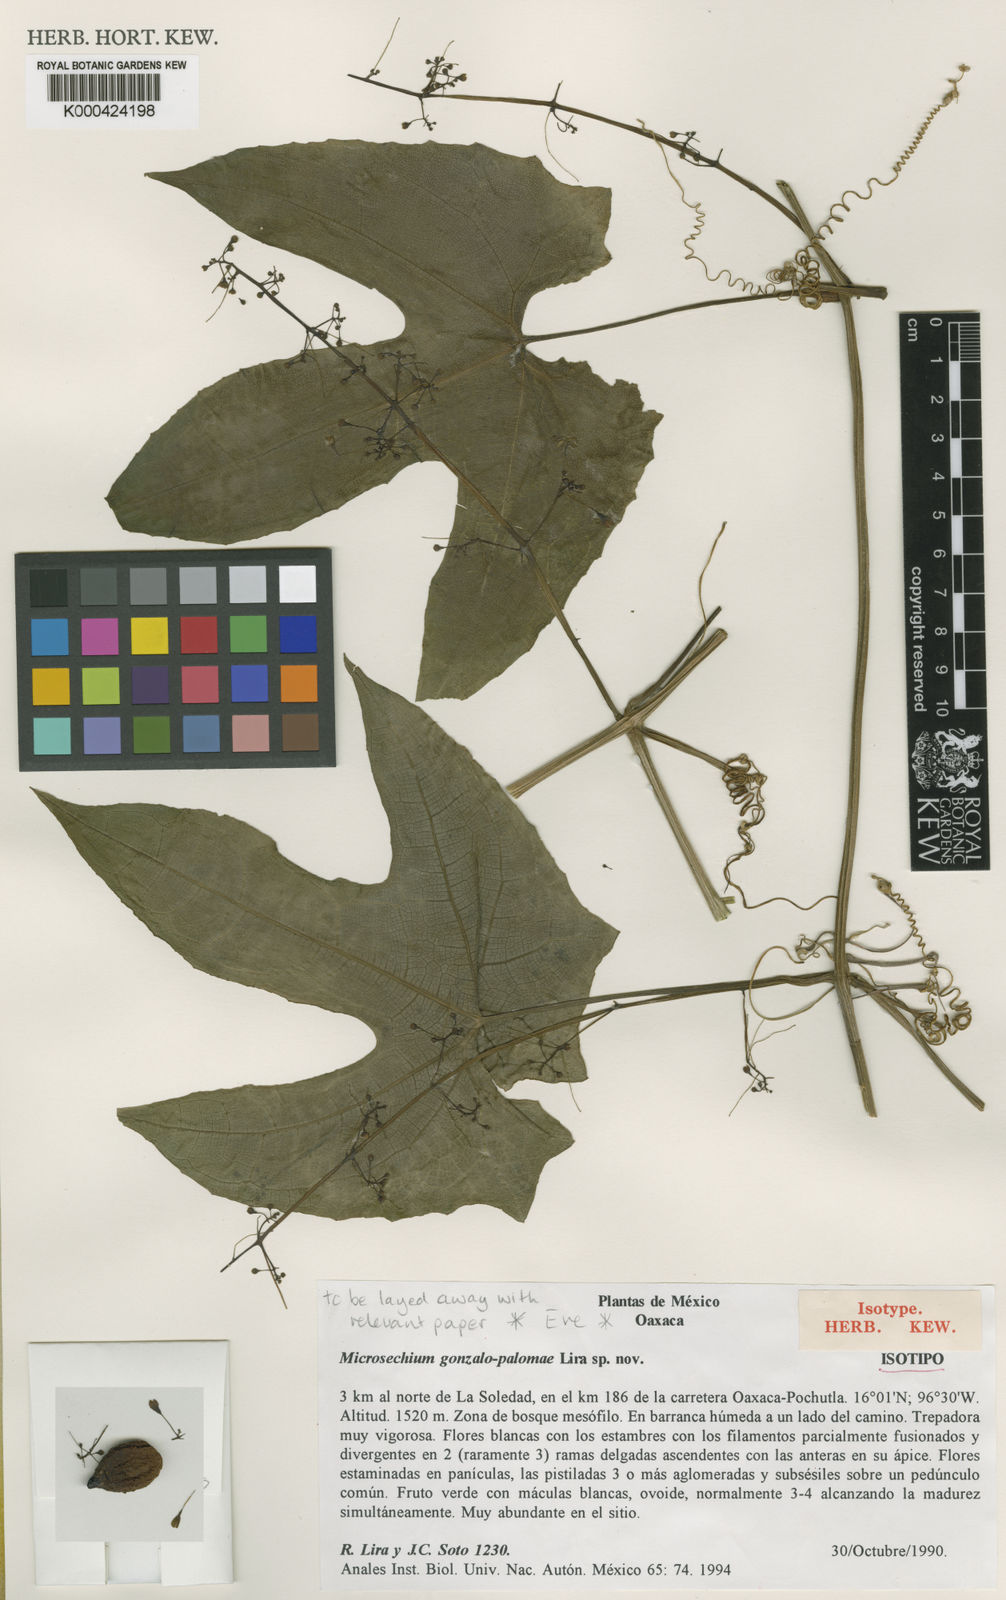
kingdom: Plantae
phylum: Tracheophyta
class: Magnoliopsida
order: Cucurbitales
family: Cucurbitaceae
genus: Microsechium
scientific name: Microsechium gonzalo-palomae
